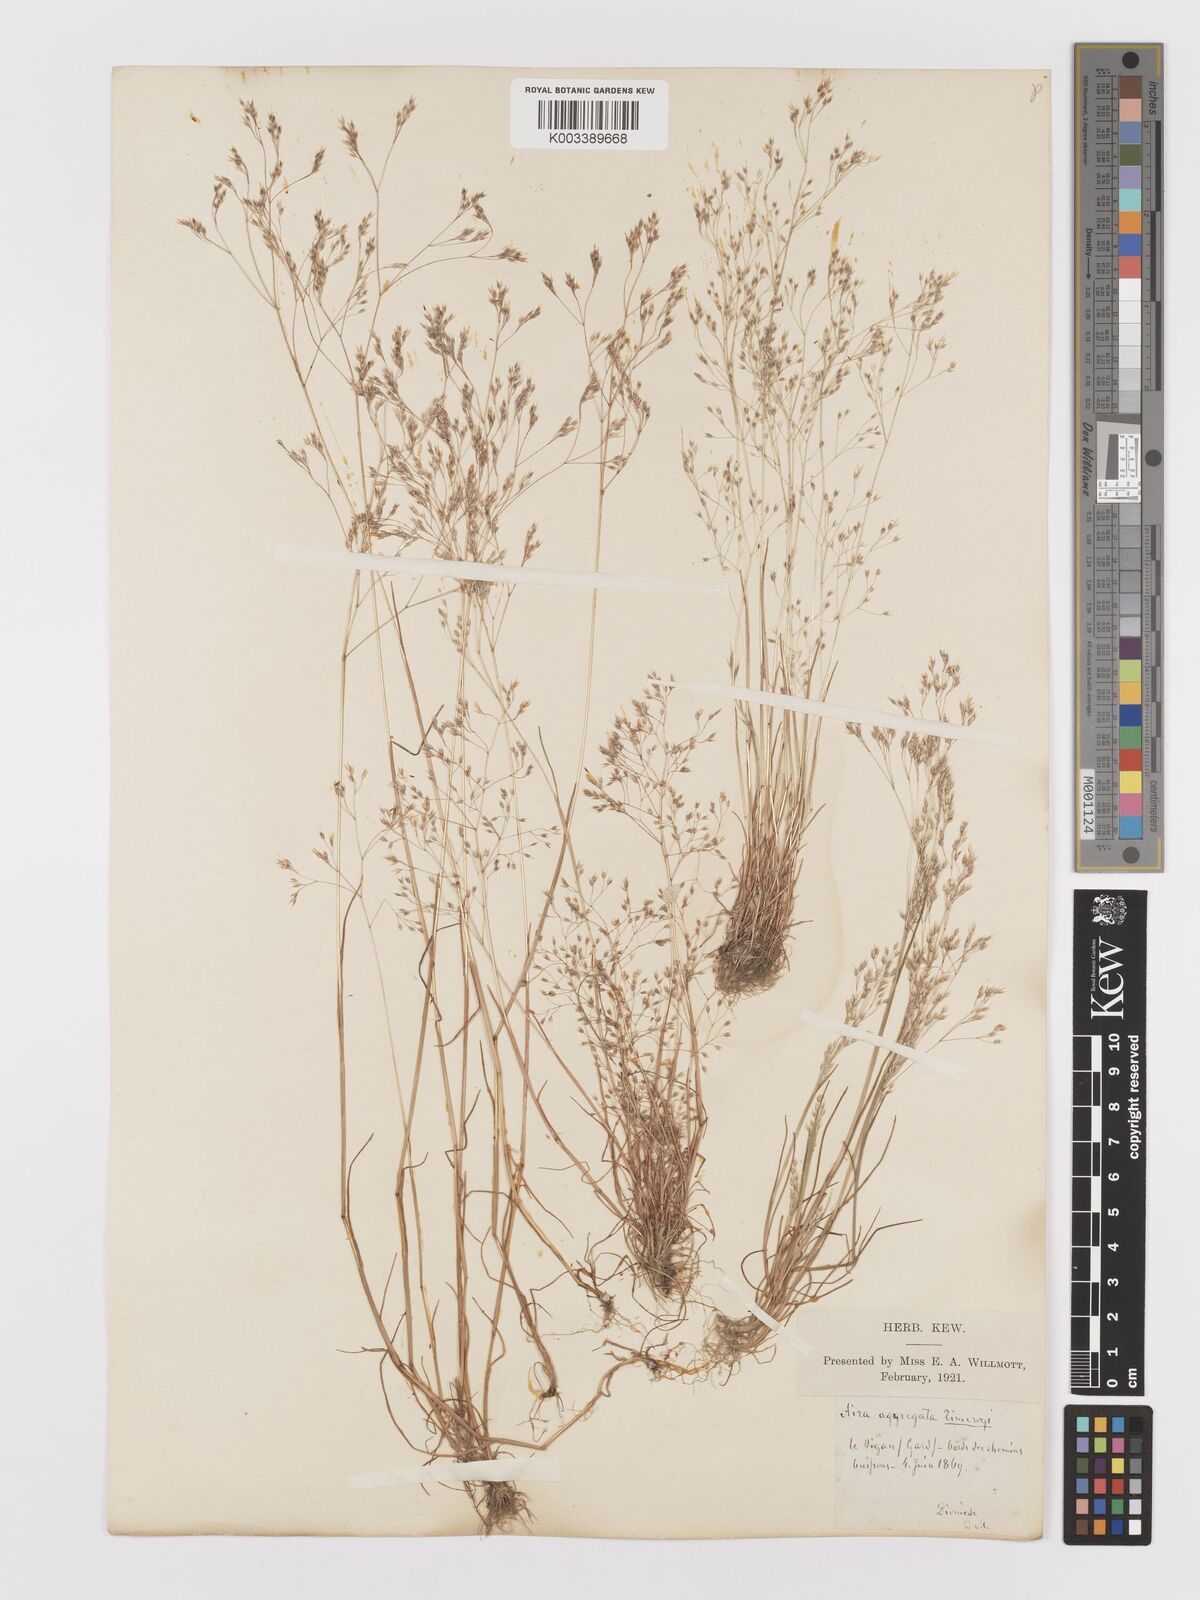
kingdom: Plantae
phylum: Tracheophyta
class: Liliopsida
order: Poales
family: Poaceae
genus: Aira
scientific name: Aira caryophyllea
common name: Silver hairgrass
